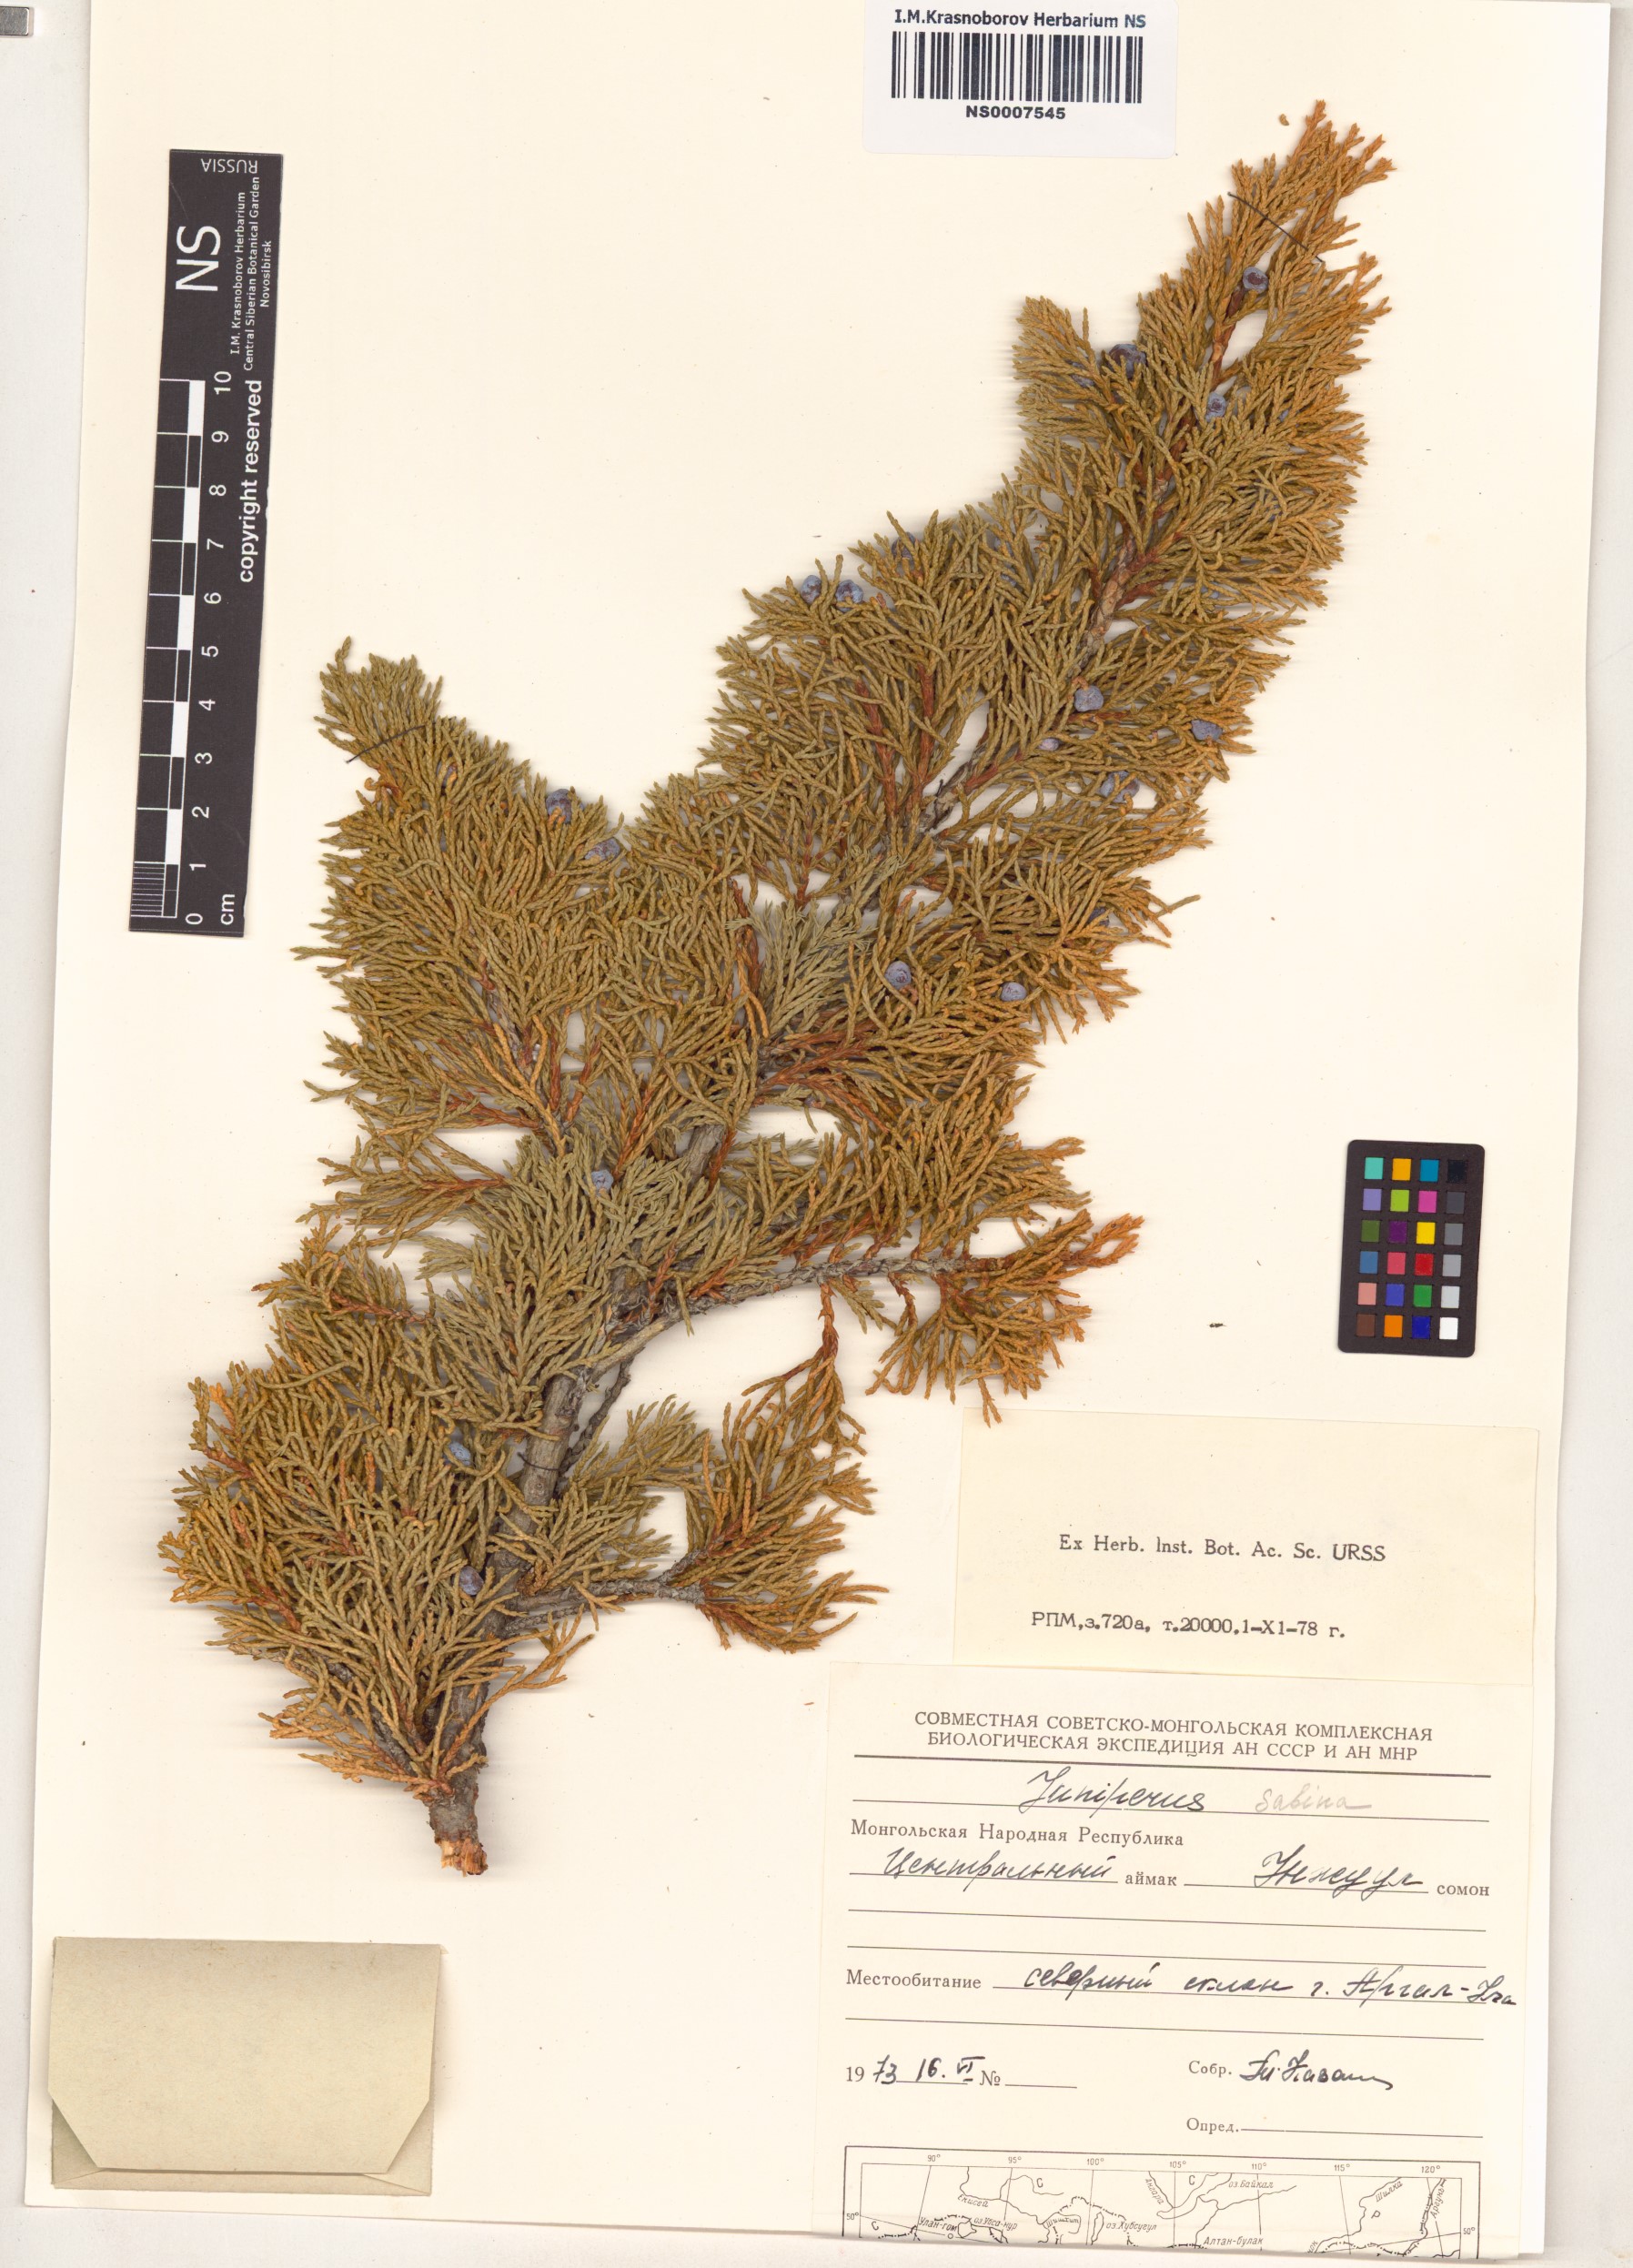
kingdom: Plantae
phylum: Tracheophyta
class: Pinopsida
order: Pinales
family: Cupressaceae
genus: Juniperus
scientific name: Juniperus sabina
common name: Savin
